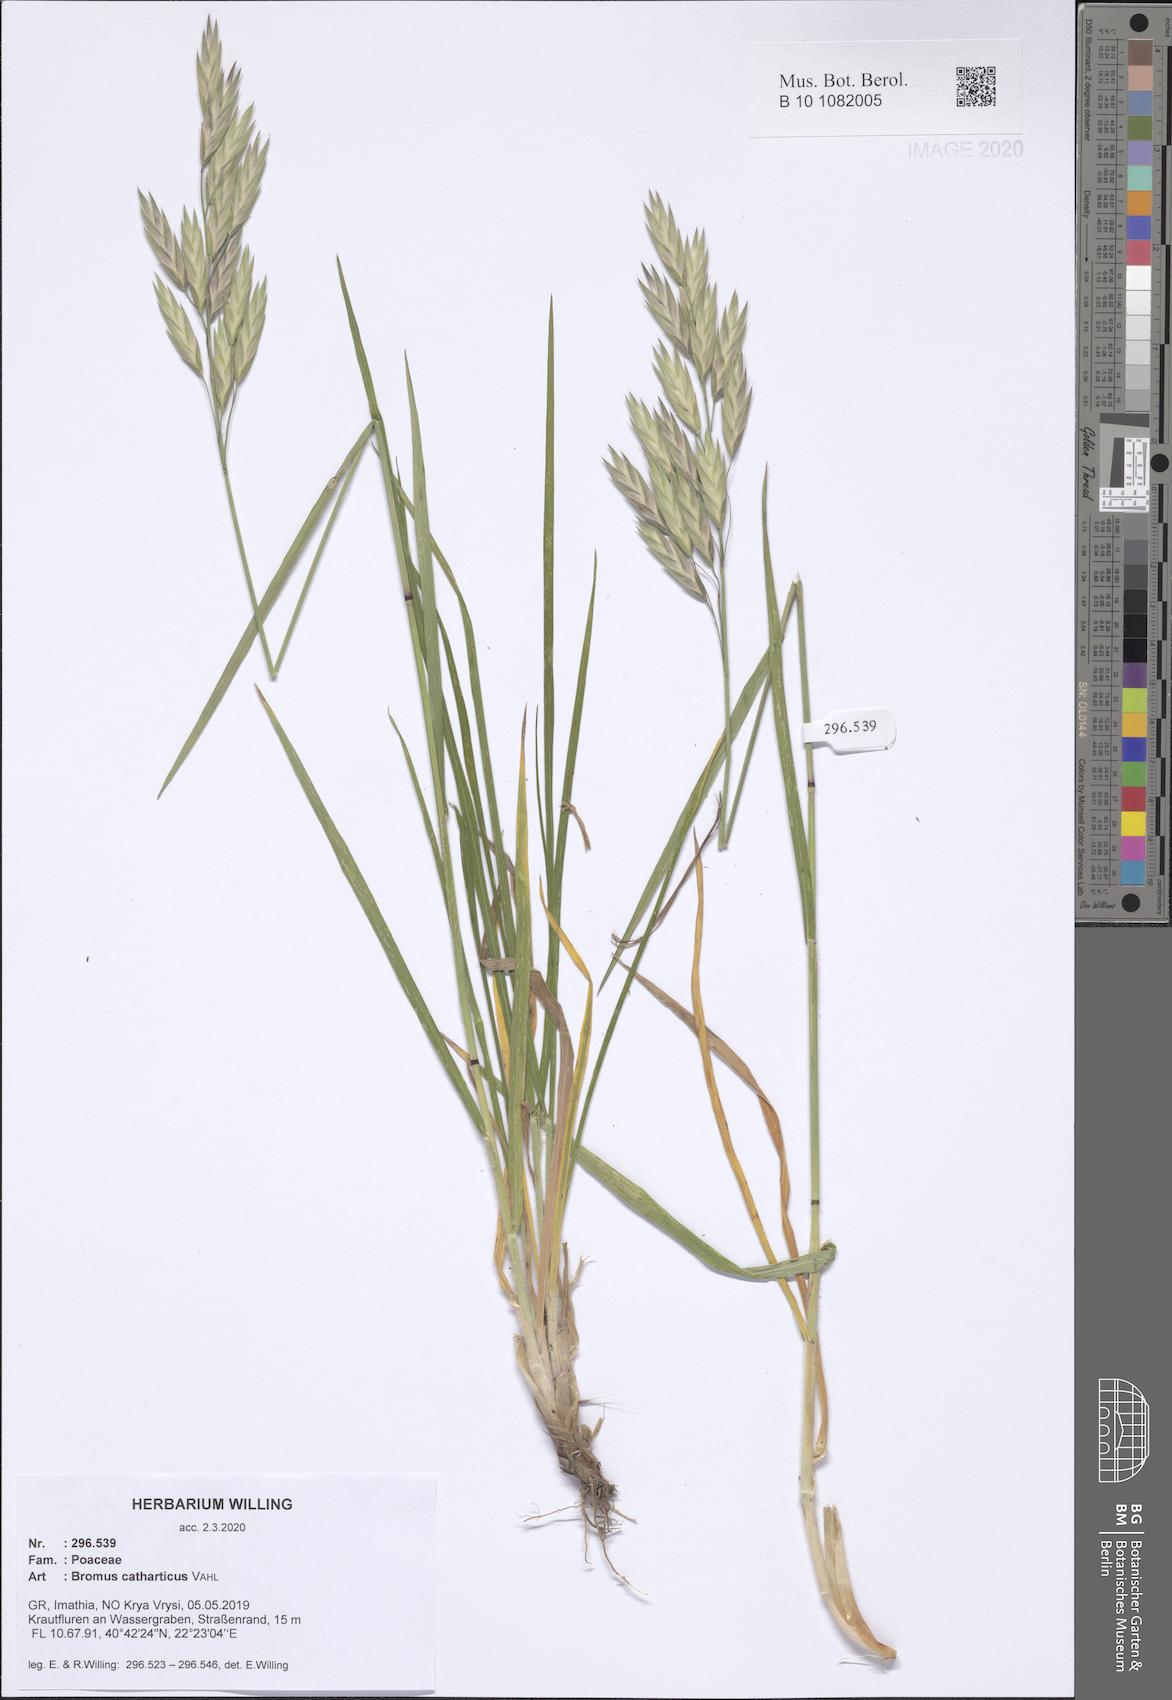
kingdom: Plantae
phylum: Tracheophyta
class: Liliopsida
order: Poales
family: Poaceae
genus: Bromus
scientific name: Bromus catharticus
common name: Rescuegrass
